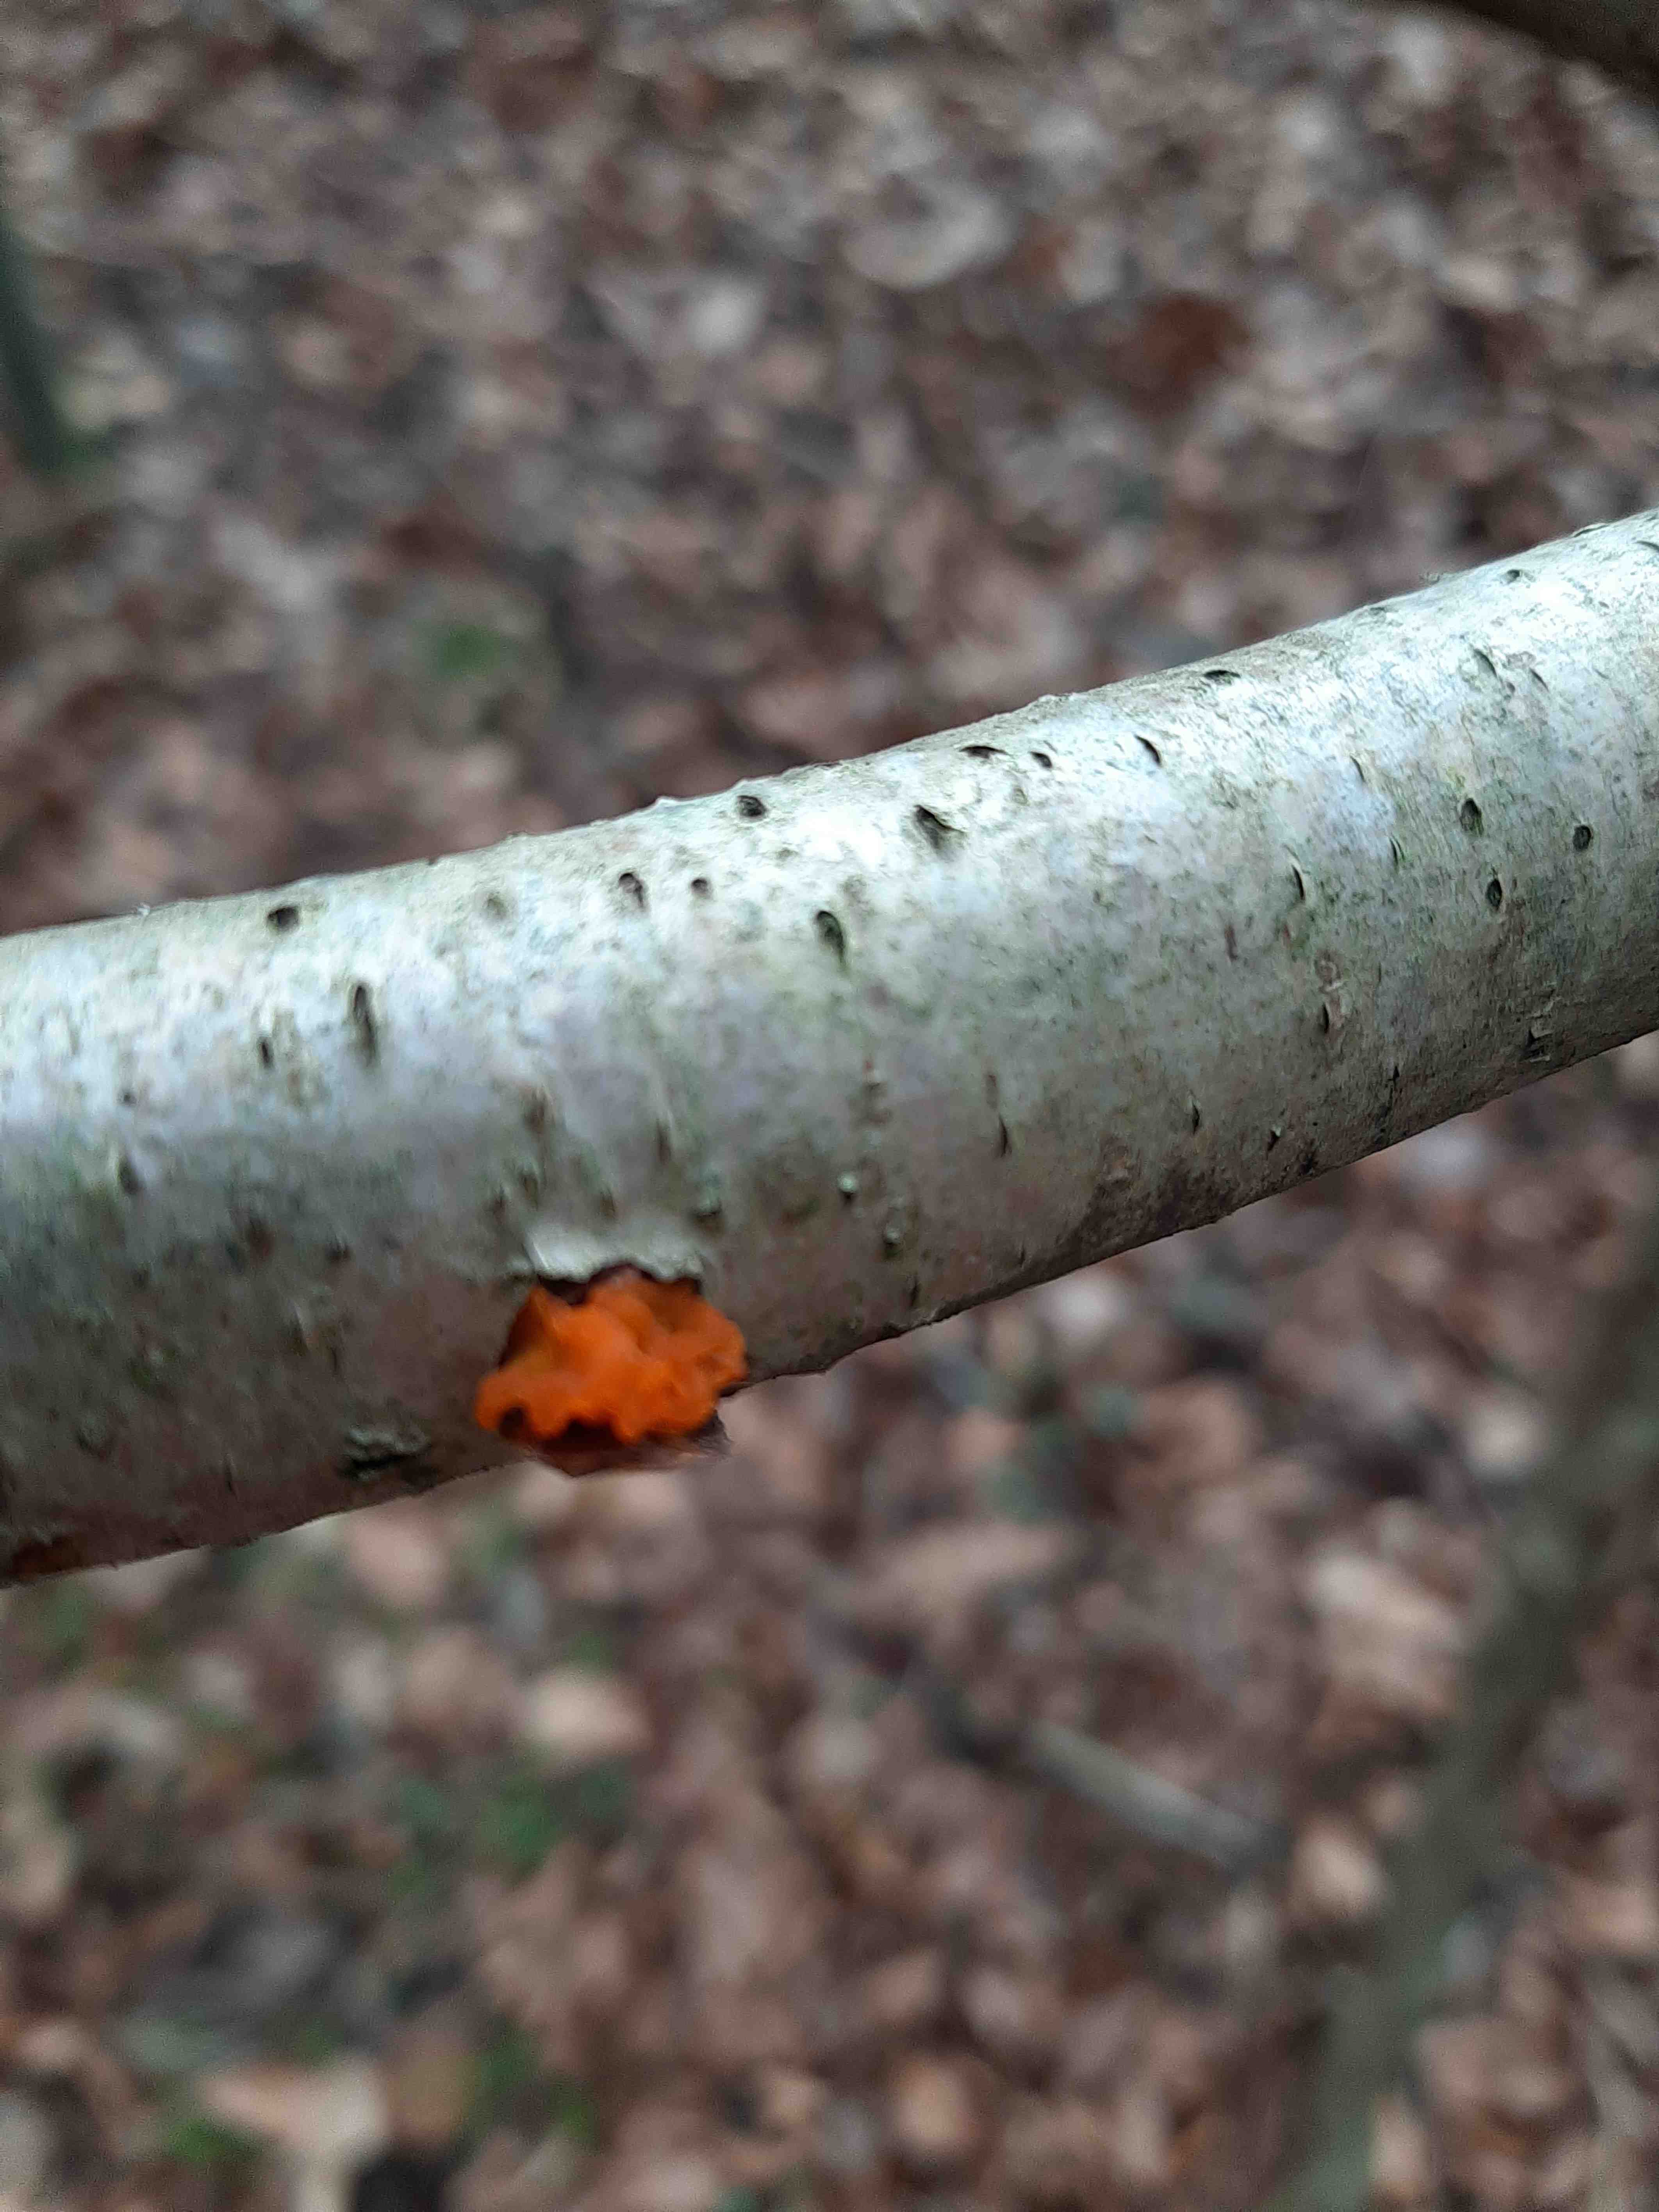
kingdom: Fungi
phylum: Basidiomycota
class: Tremellomycetes
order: Tremellales
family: Tremellaceae
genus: Tremella
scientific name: Tremella mesenterica
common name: gul bævresvamp
